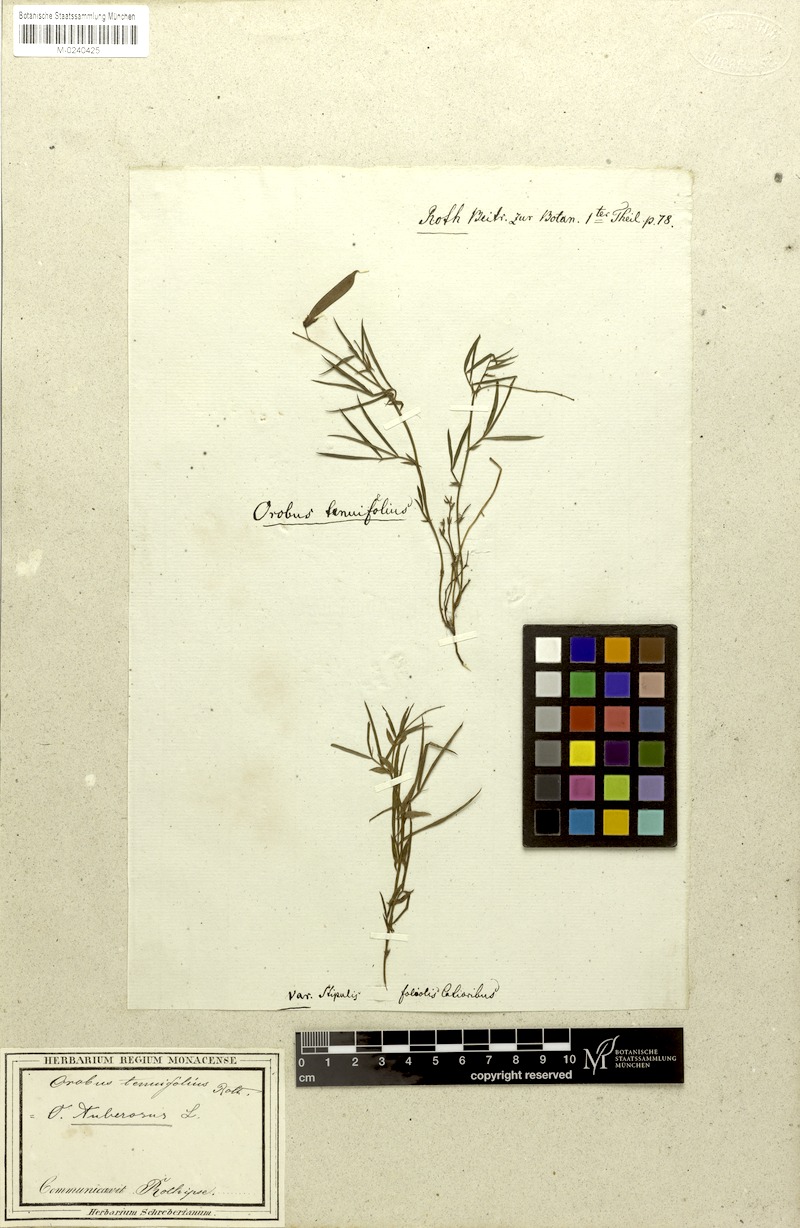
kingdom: Plantae
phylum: Tracheophyta
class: Magnoliopsida
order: Fabales
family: Fabaceae
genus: Lathyrus
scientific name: Lathyrus linifolius
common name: Bitter-vetch
